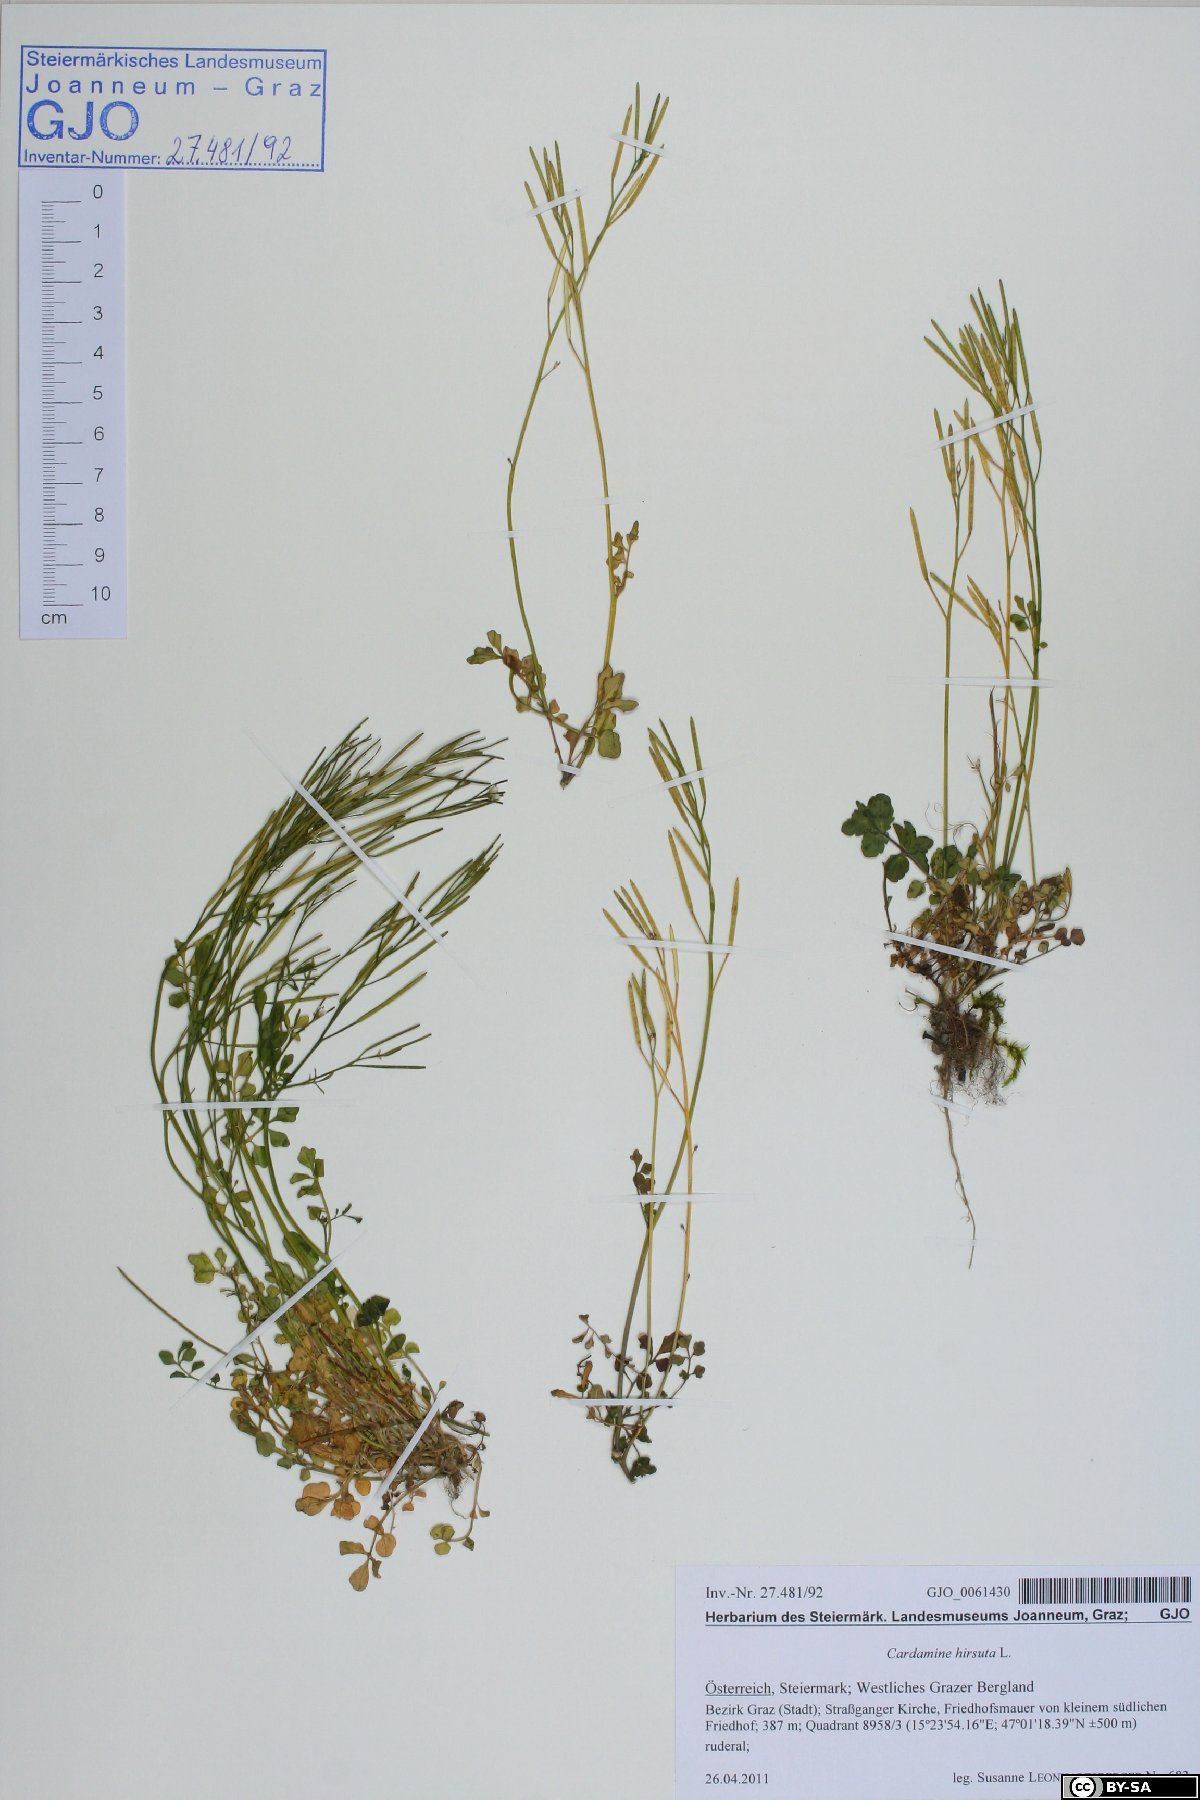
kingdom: Plantae
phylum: Tracheophyta
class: Magnoliopsida
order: Brassicales
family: Brassicaceae
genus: Cardamine
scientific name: Cardamine hirsuta
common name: Hairy bittercress
